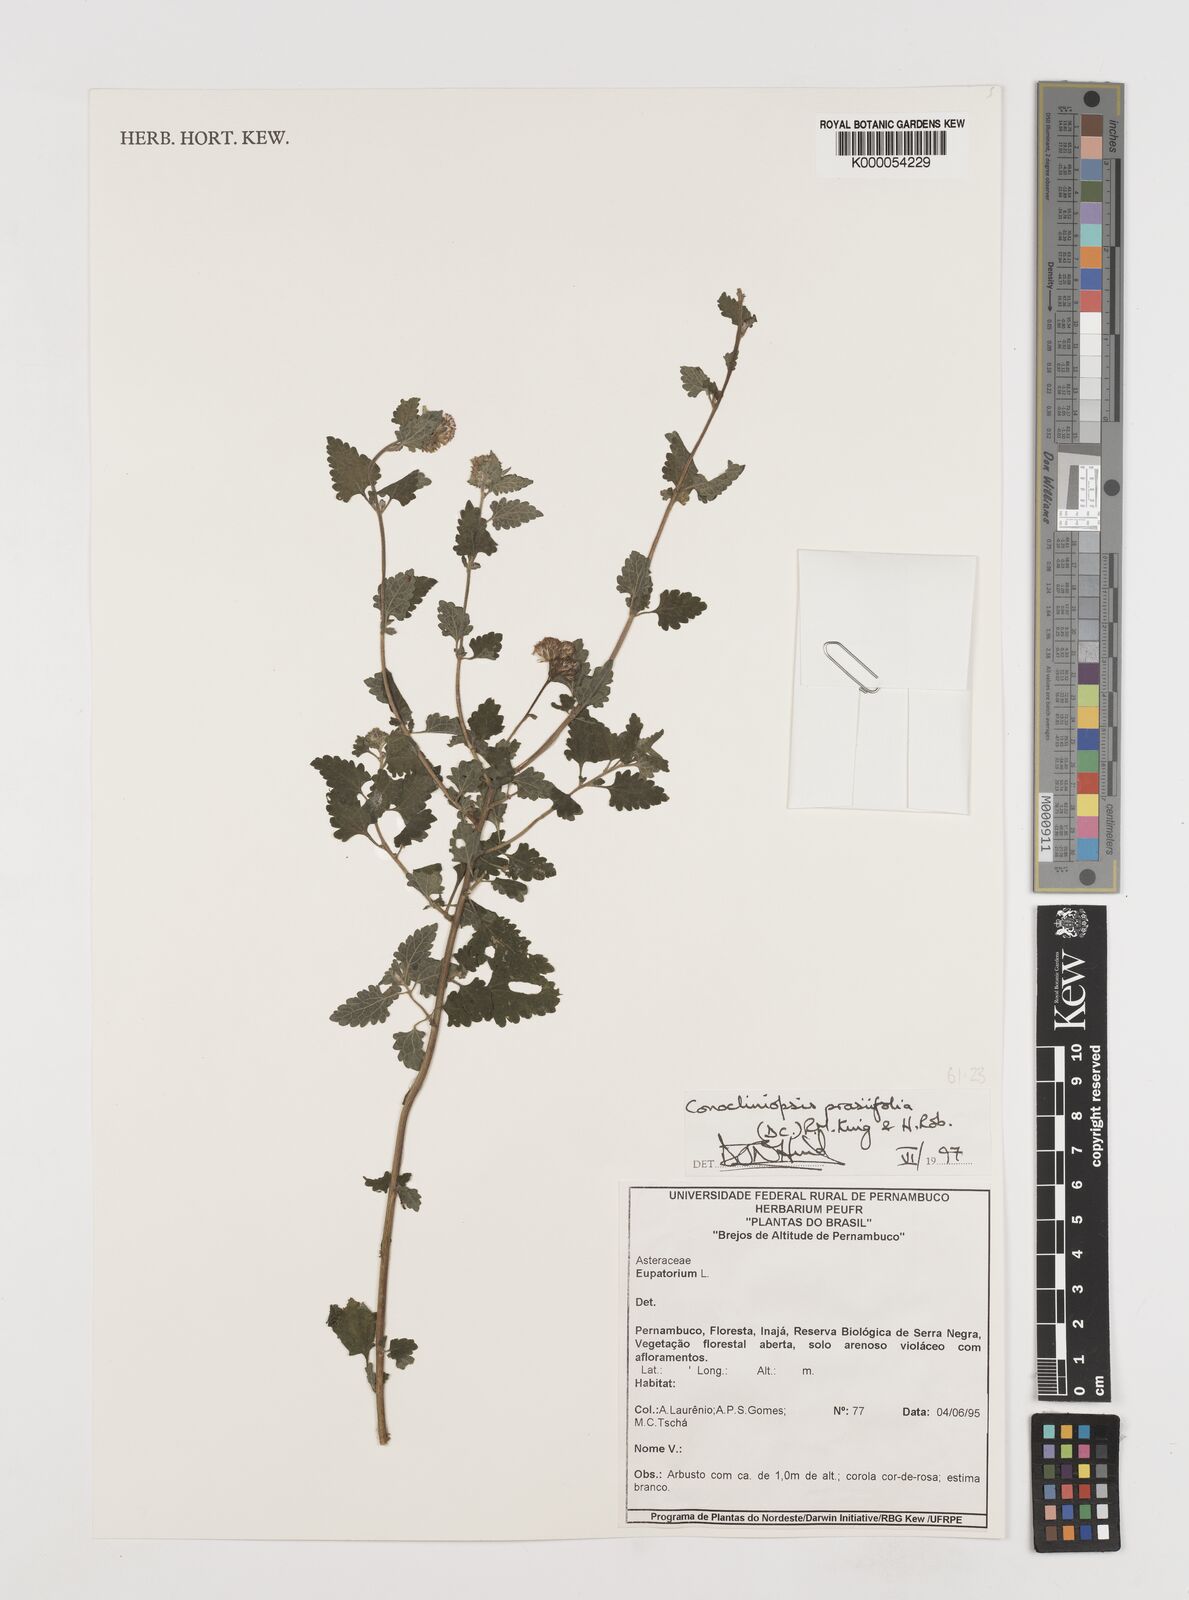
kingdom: Plantae
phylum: Tracheophyta
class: Magnoliopsida
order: Asterales
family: Asteraceae
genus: Conocliniopsis
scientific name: Conocliniopsis grossedentata
